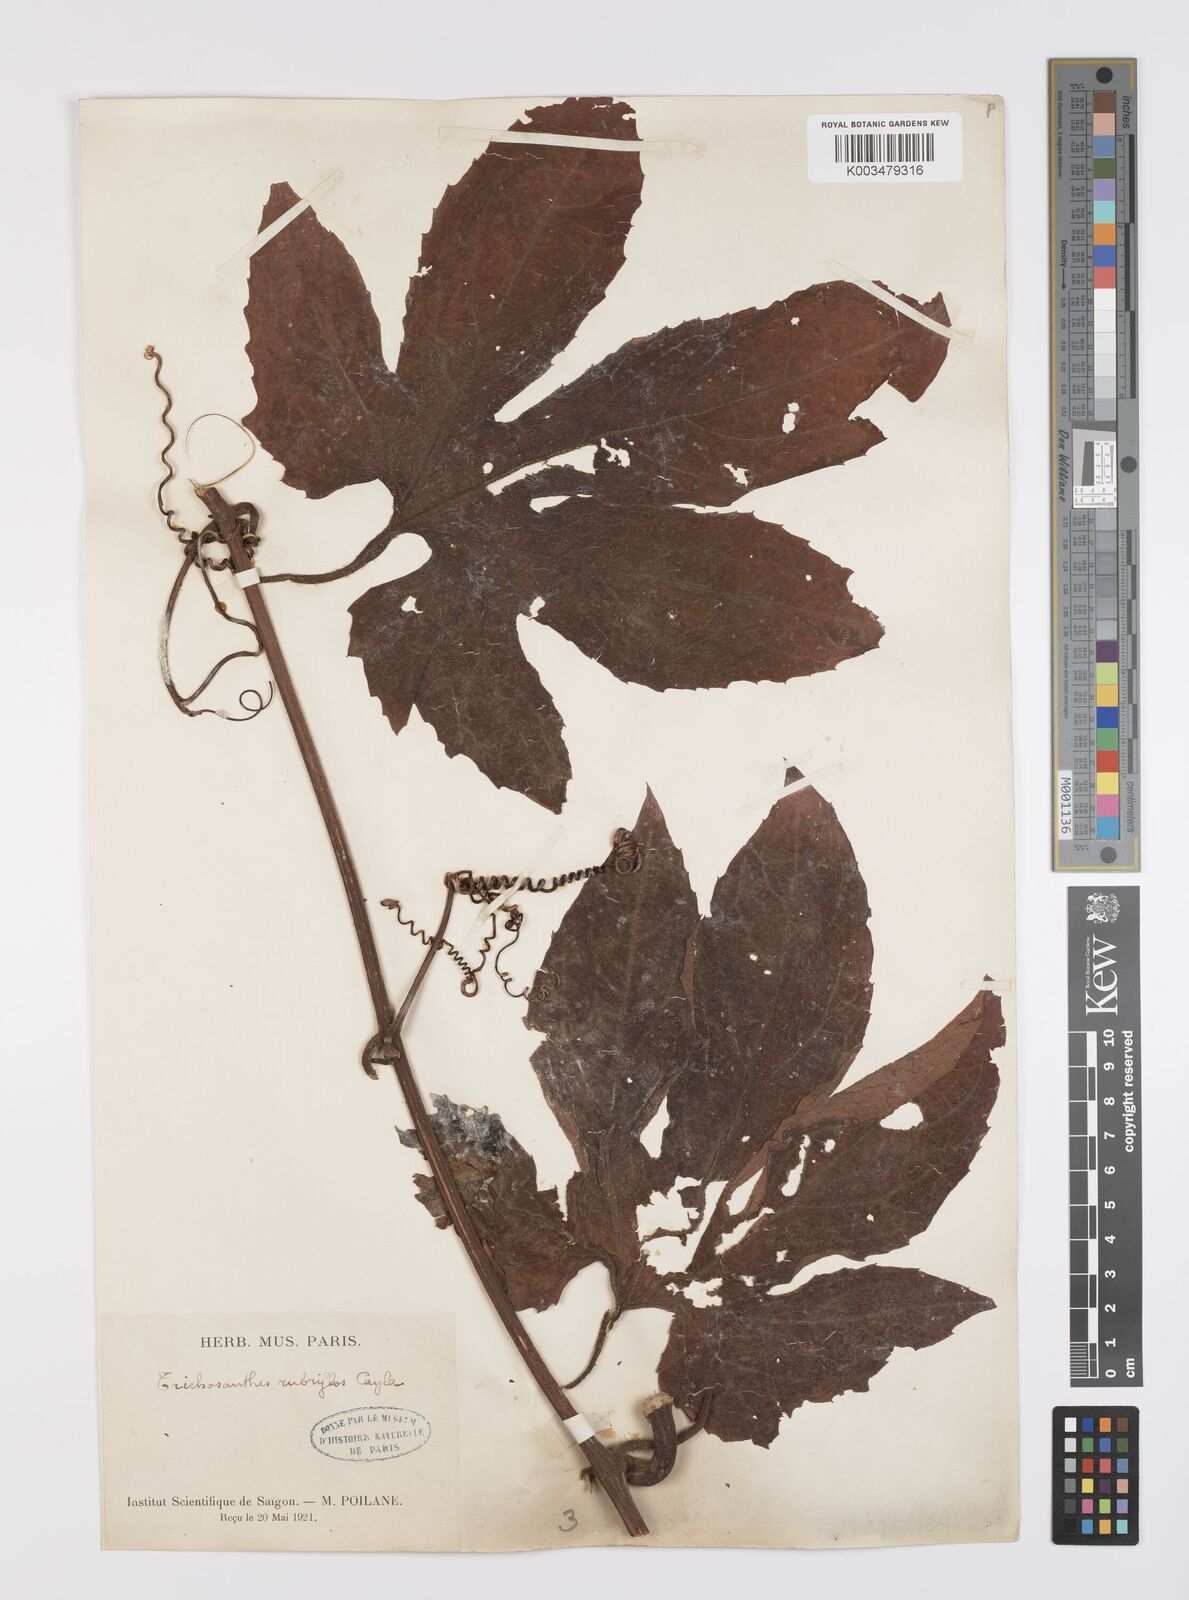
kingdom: Plantae
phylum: Tracheophyta
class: Magnoliopsida
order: Cucurbitales
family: Cucurbitaceae
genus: Trichosanthes
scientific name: Trichosanthes rubriflos
